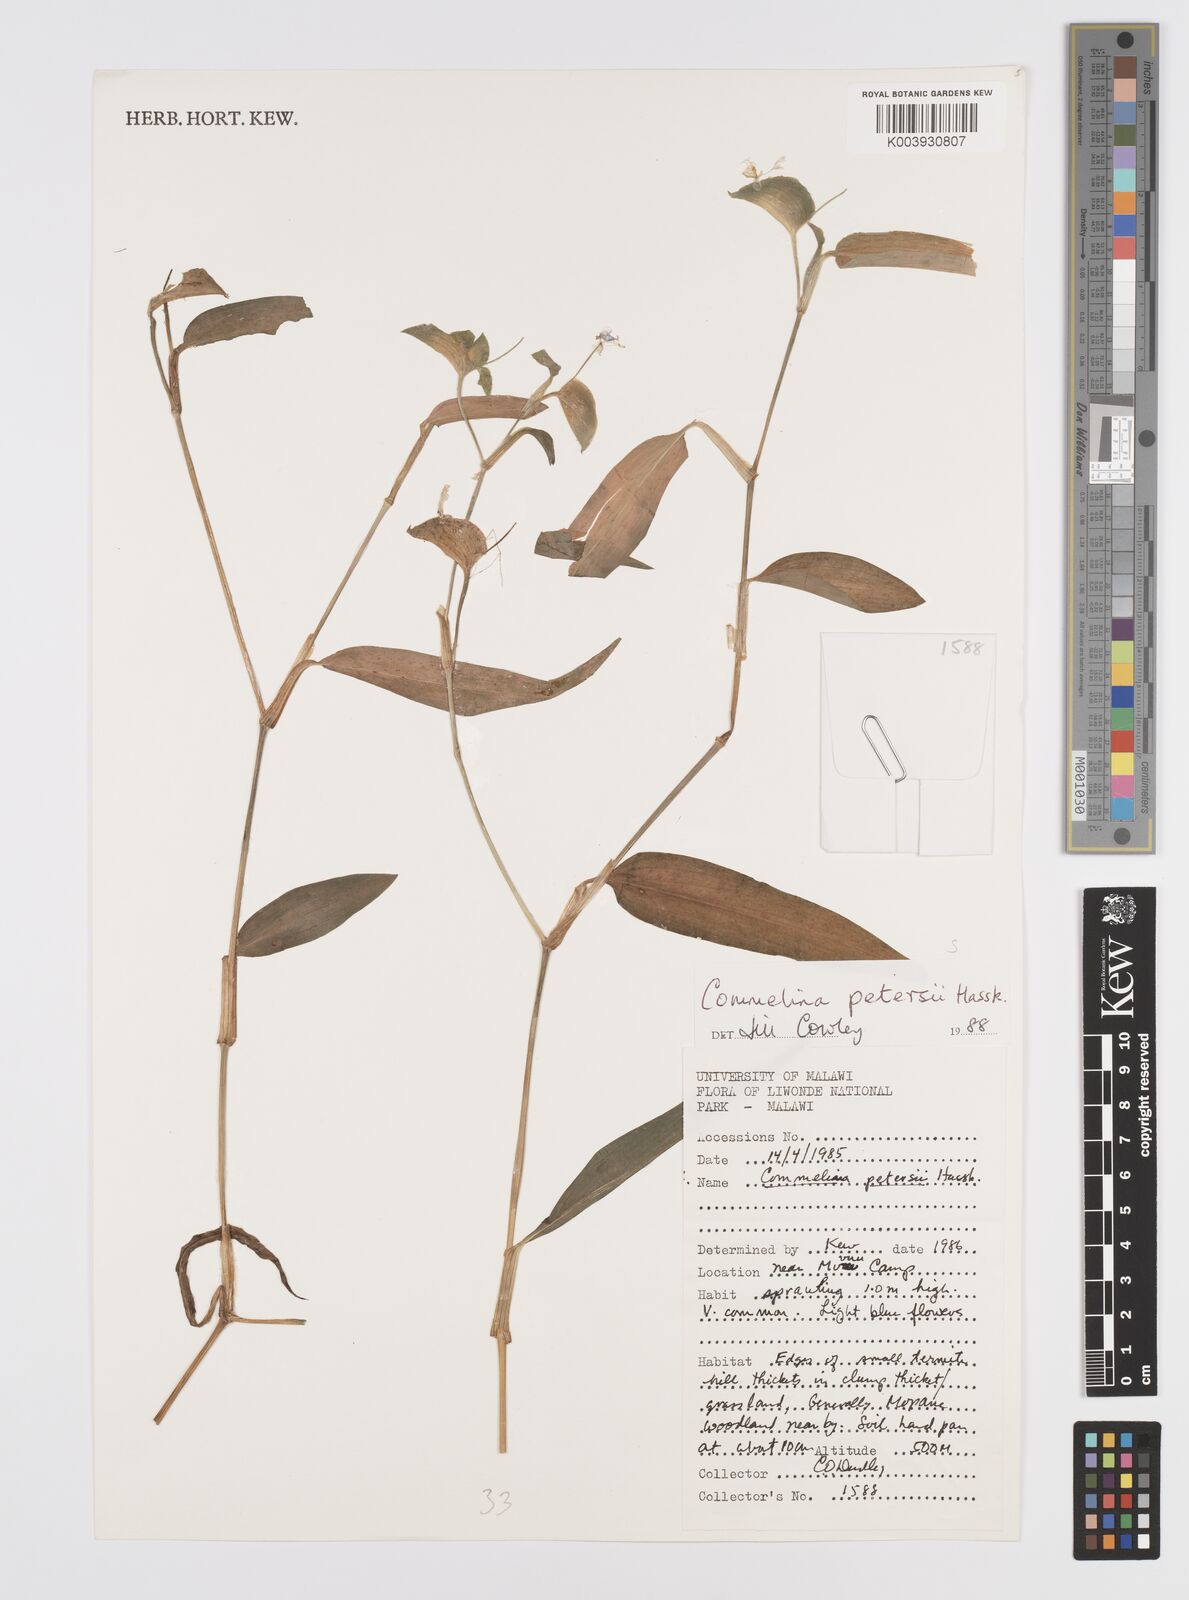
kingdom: Plantae
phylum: Tracheophyta
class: Liliopsida
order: Commelinales
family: Commelinaceae
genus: Commelina
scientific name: Commelina petersii
